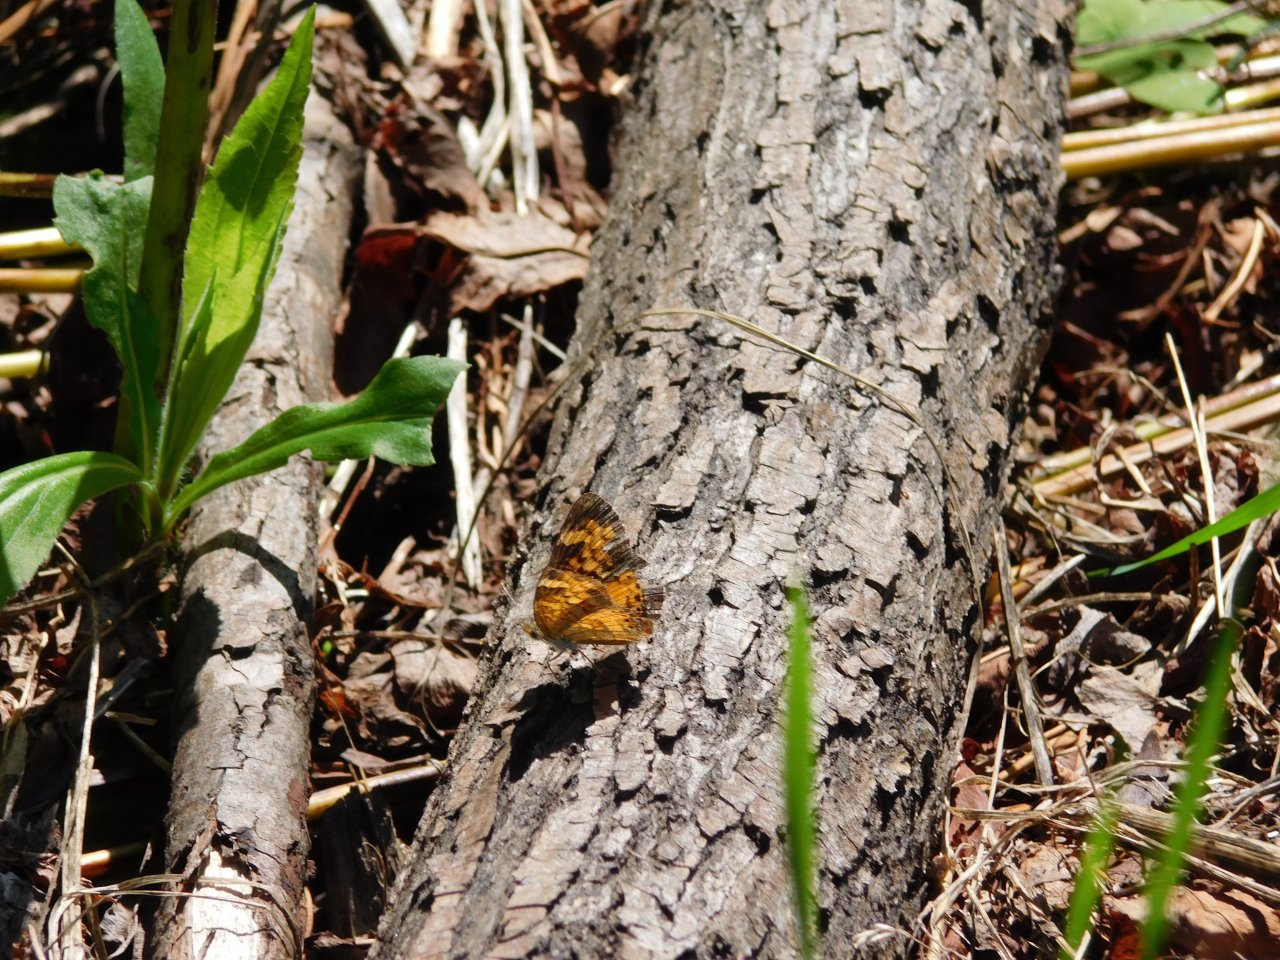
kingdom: Animalia
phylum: Arthropoda
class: Insecta
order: Lepidoptera
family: Nymphalidae
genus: Phyciodes
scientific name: Phyciodes tharos
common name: Northern Crescent
